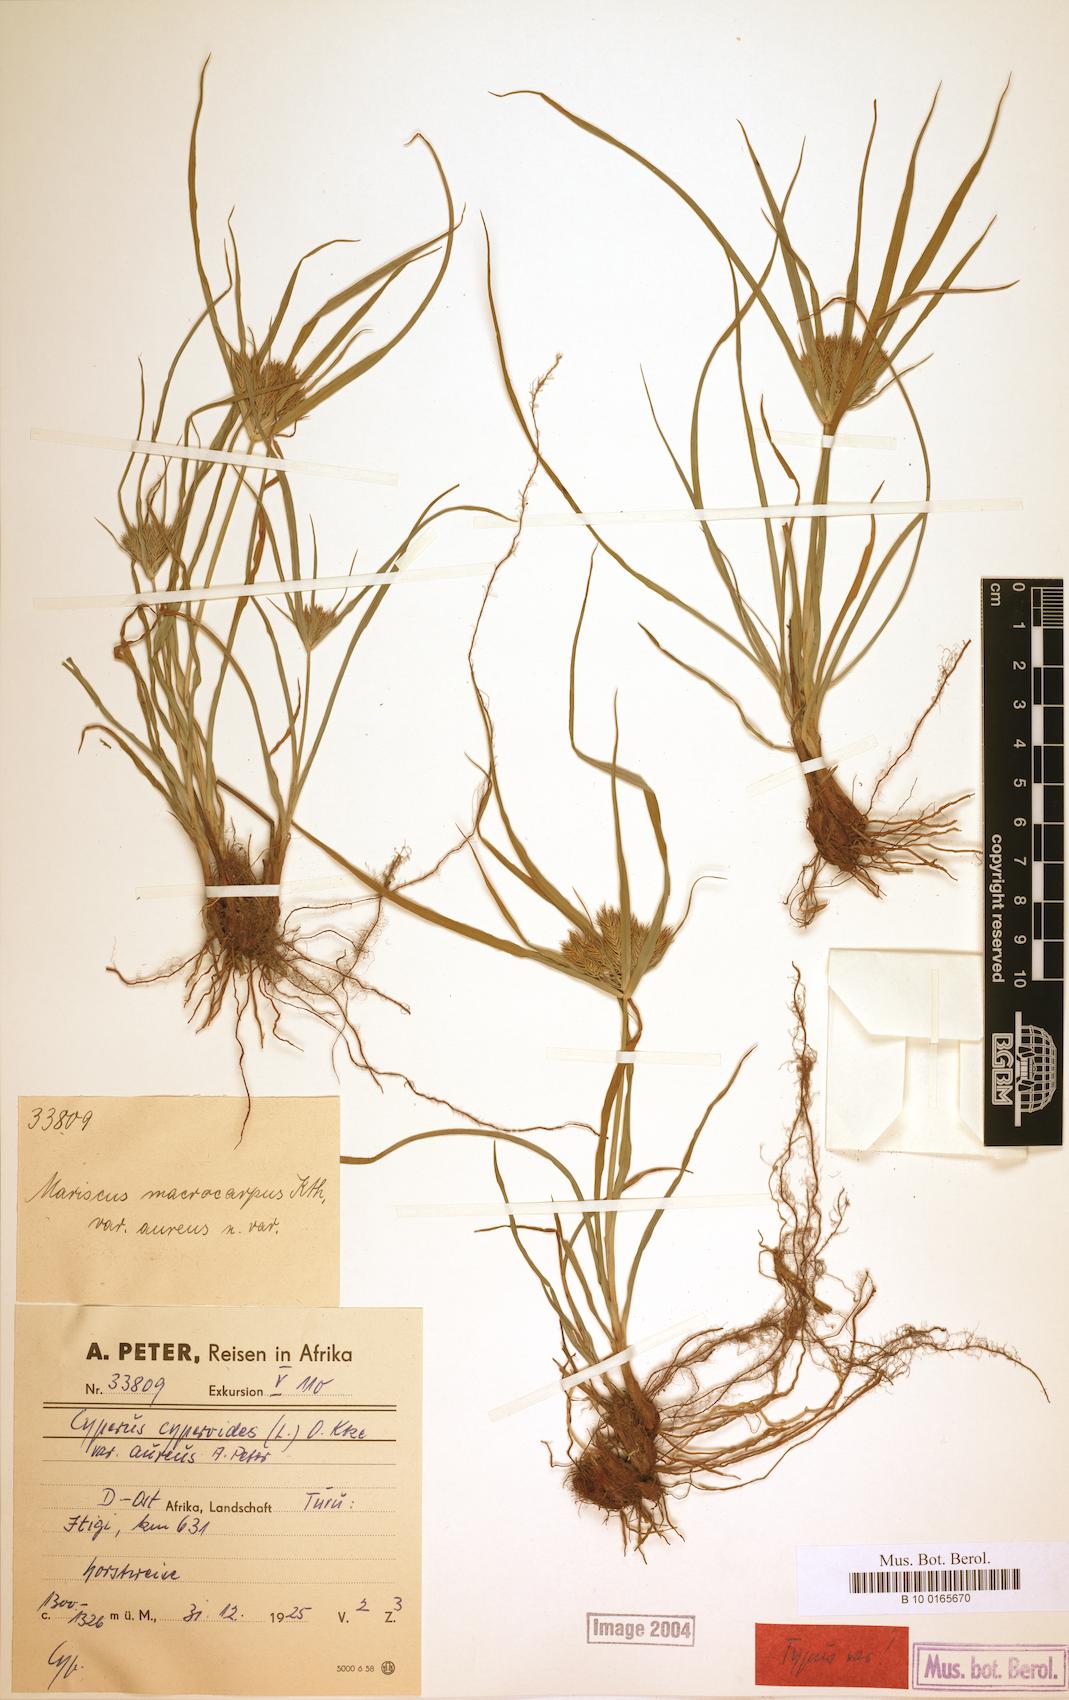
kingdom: Plantae
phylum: Tracheophyta
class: Liliopsida
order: Poales
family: Cyperaceae
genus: Cyperus
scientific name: Cyperus cyperoides
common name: Pacific island flat sedge
